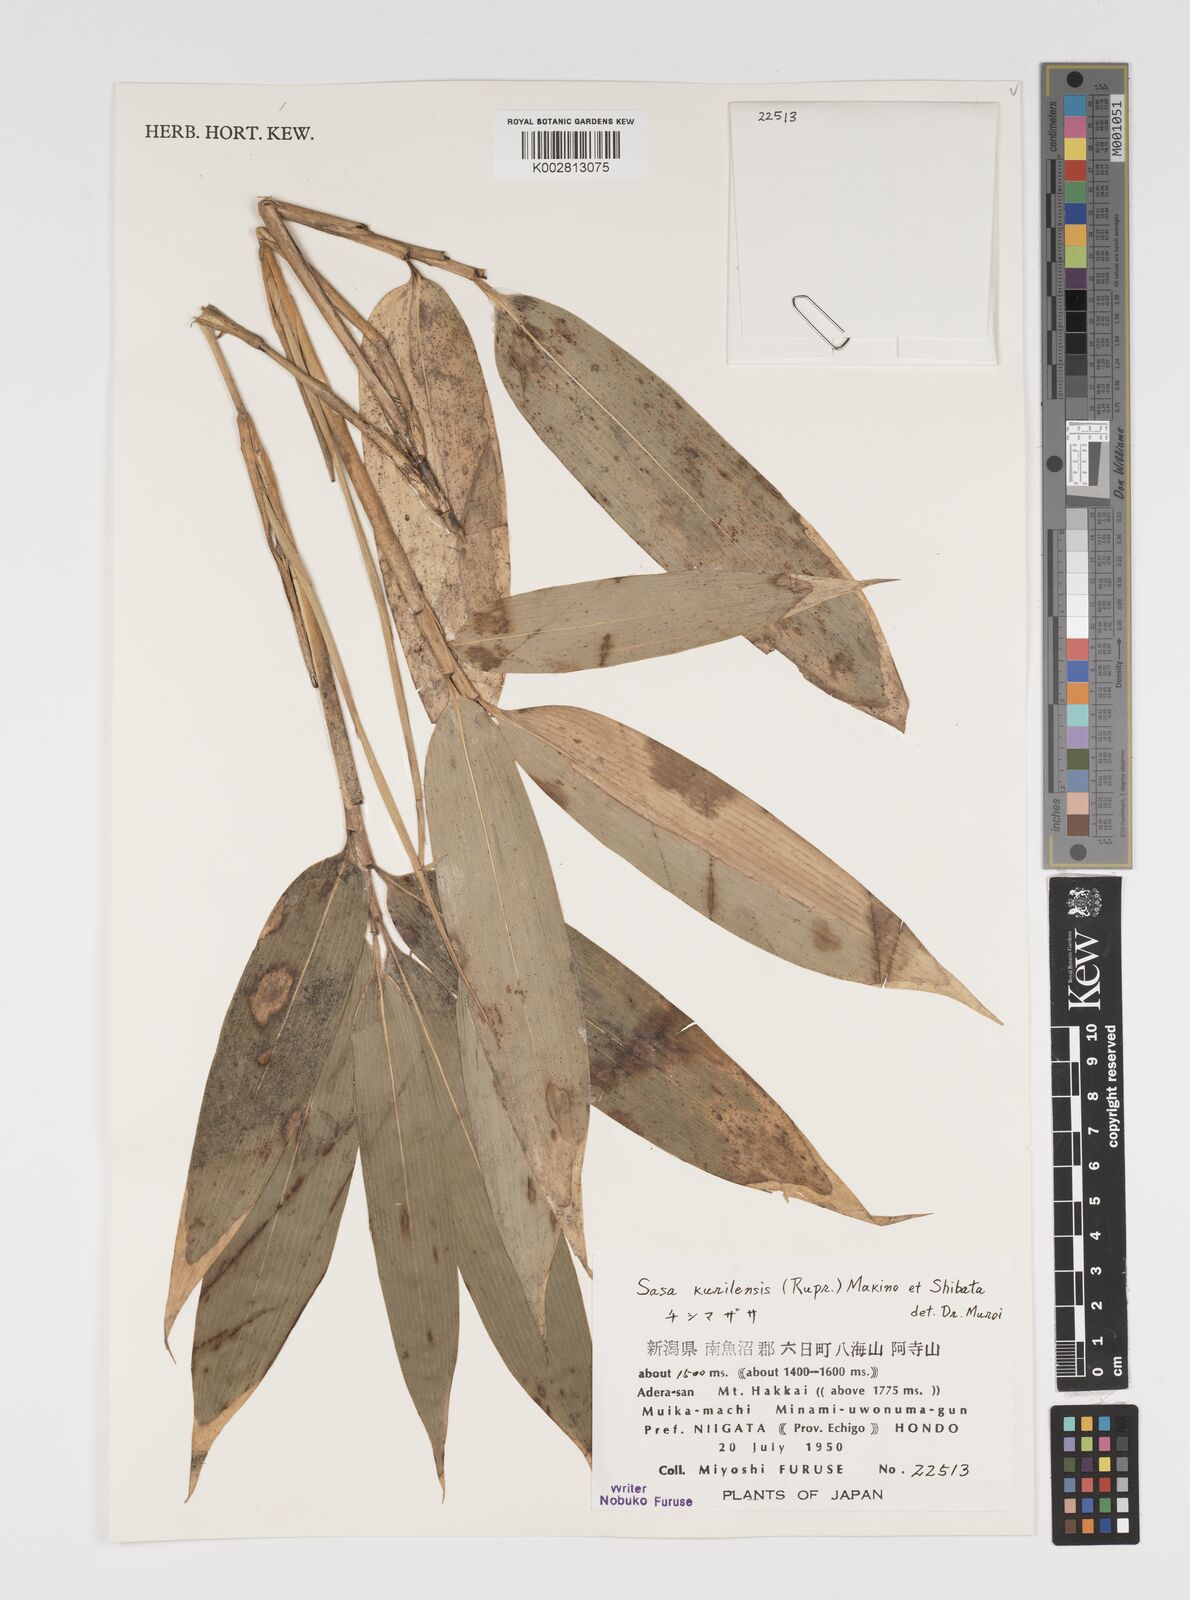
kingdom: Plantae
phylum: Tracheophyta
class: Liliopsida
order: Poales
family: Poaceae
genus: Sasa
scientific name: Sasa kurilensis
